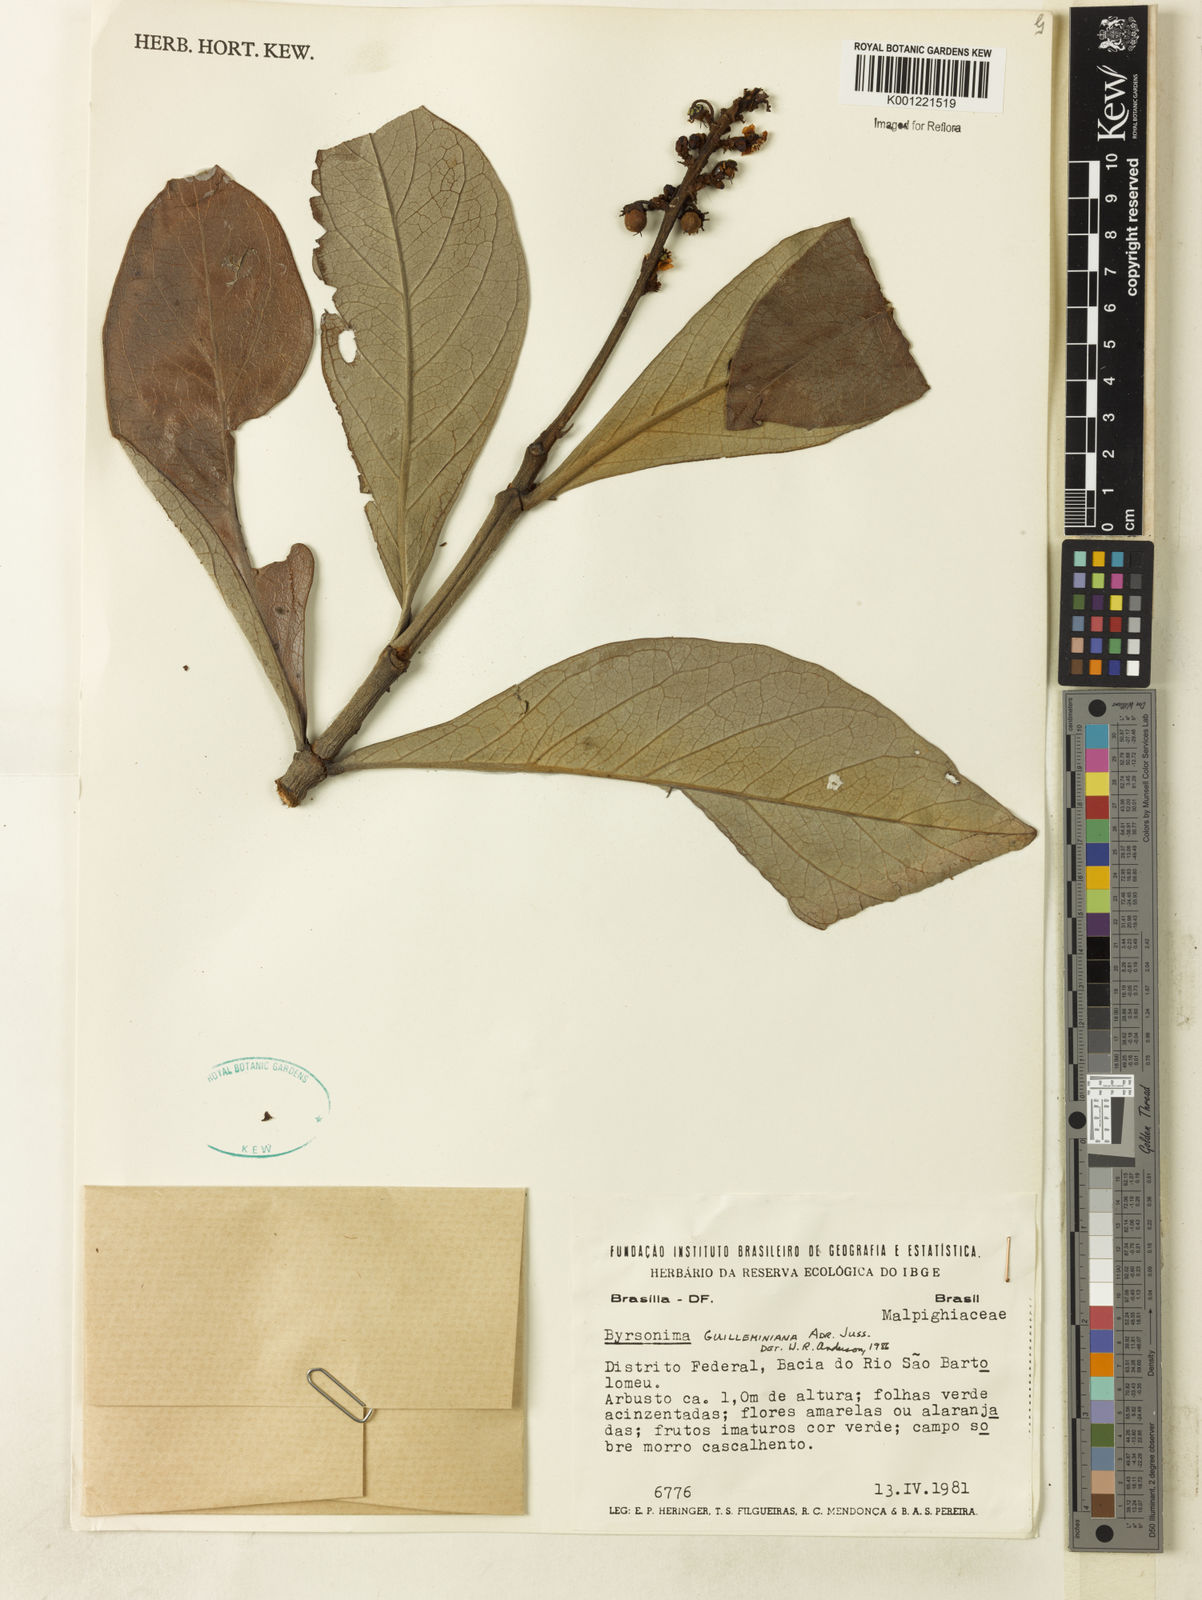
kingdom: Plantae
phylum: Tracheophyta
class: Magnoliopsida
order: Malpighiales
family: Malpighiaceae
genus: Byrsonima
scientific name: Byrsonima guilleminiana
